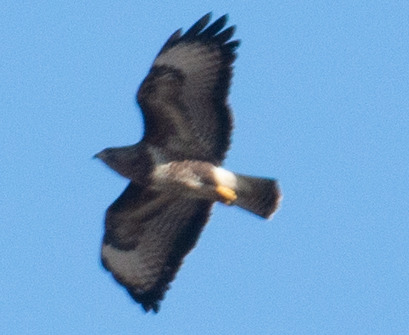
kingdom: Animalia
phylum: Chordata
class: Aves
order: Accipitriformes
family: Accipitridae
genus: Buteo
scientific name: Buteo buteo
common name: Musvåge
